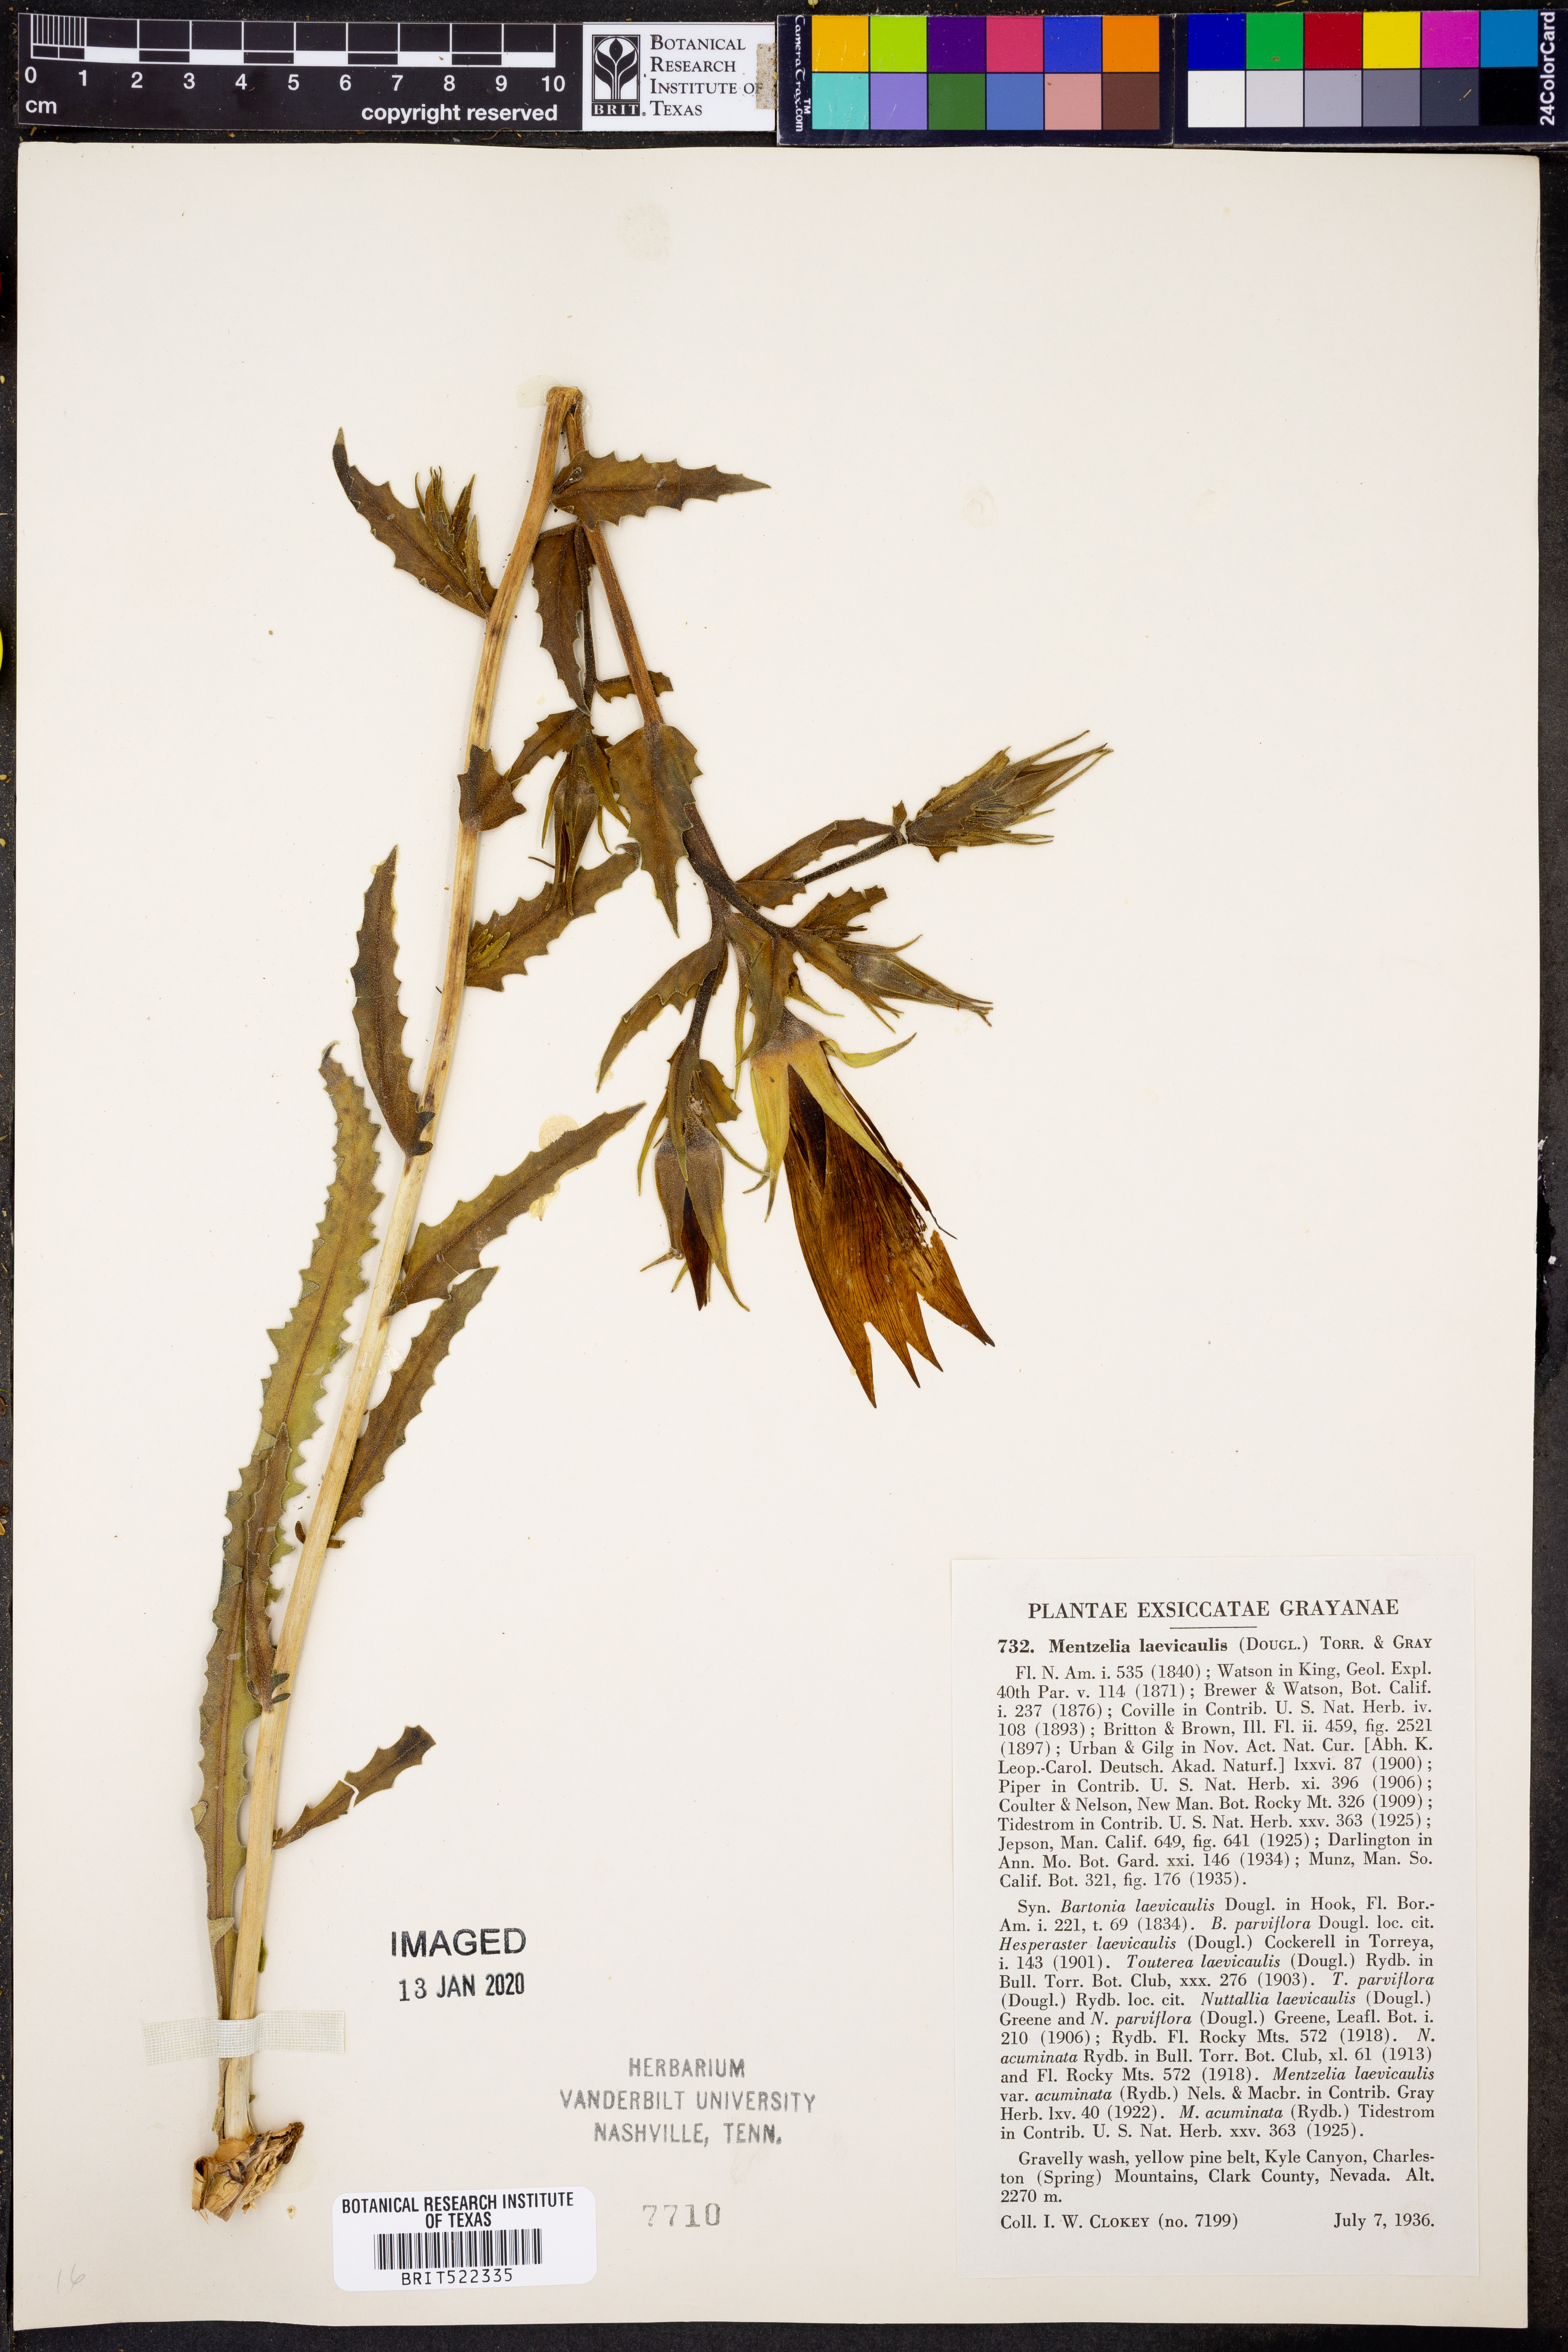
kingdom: Plantae
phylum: Tracheophyta
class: Magnoliopsida
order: Cornales
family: Loasaceae
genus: Mentzelia
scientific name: Mentzelia laevicaulis
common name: Smooth-stem blazingstar
